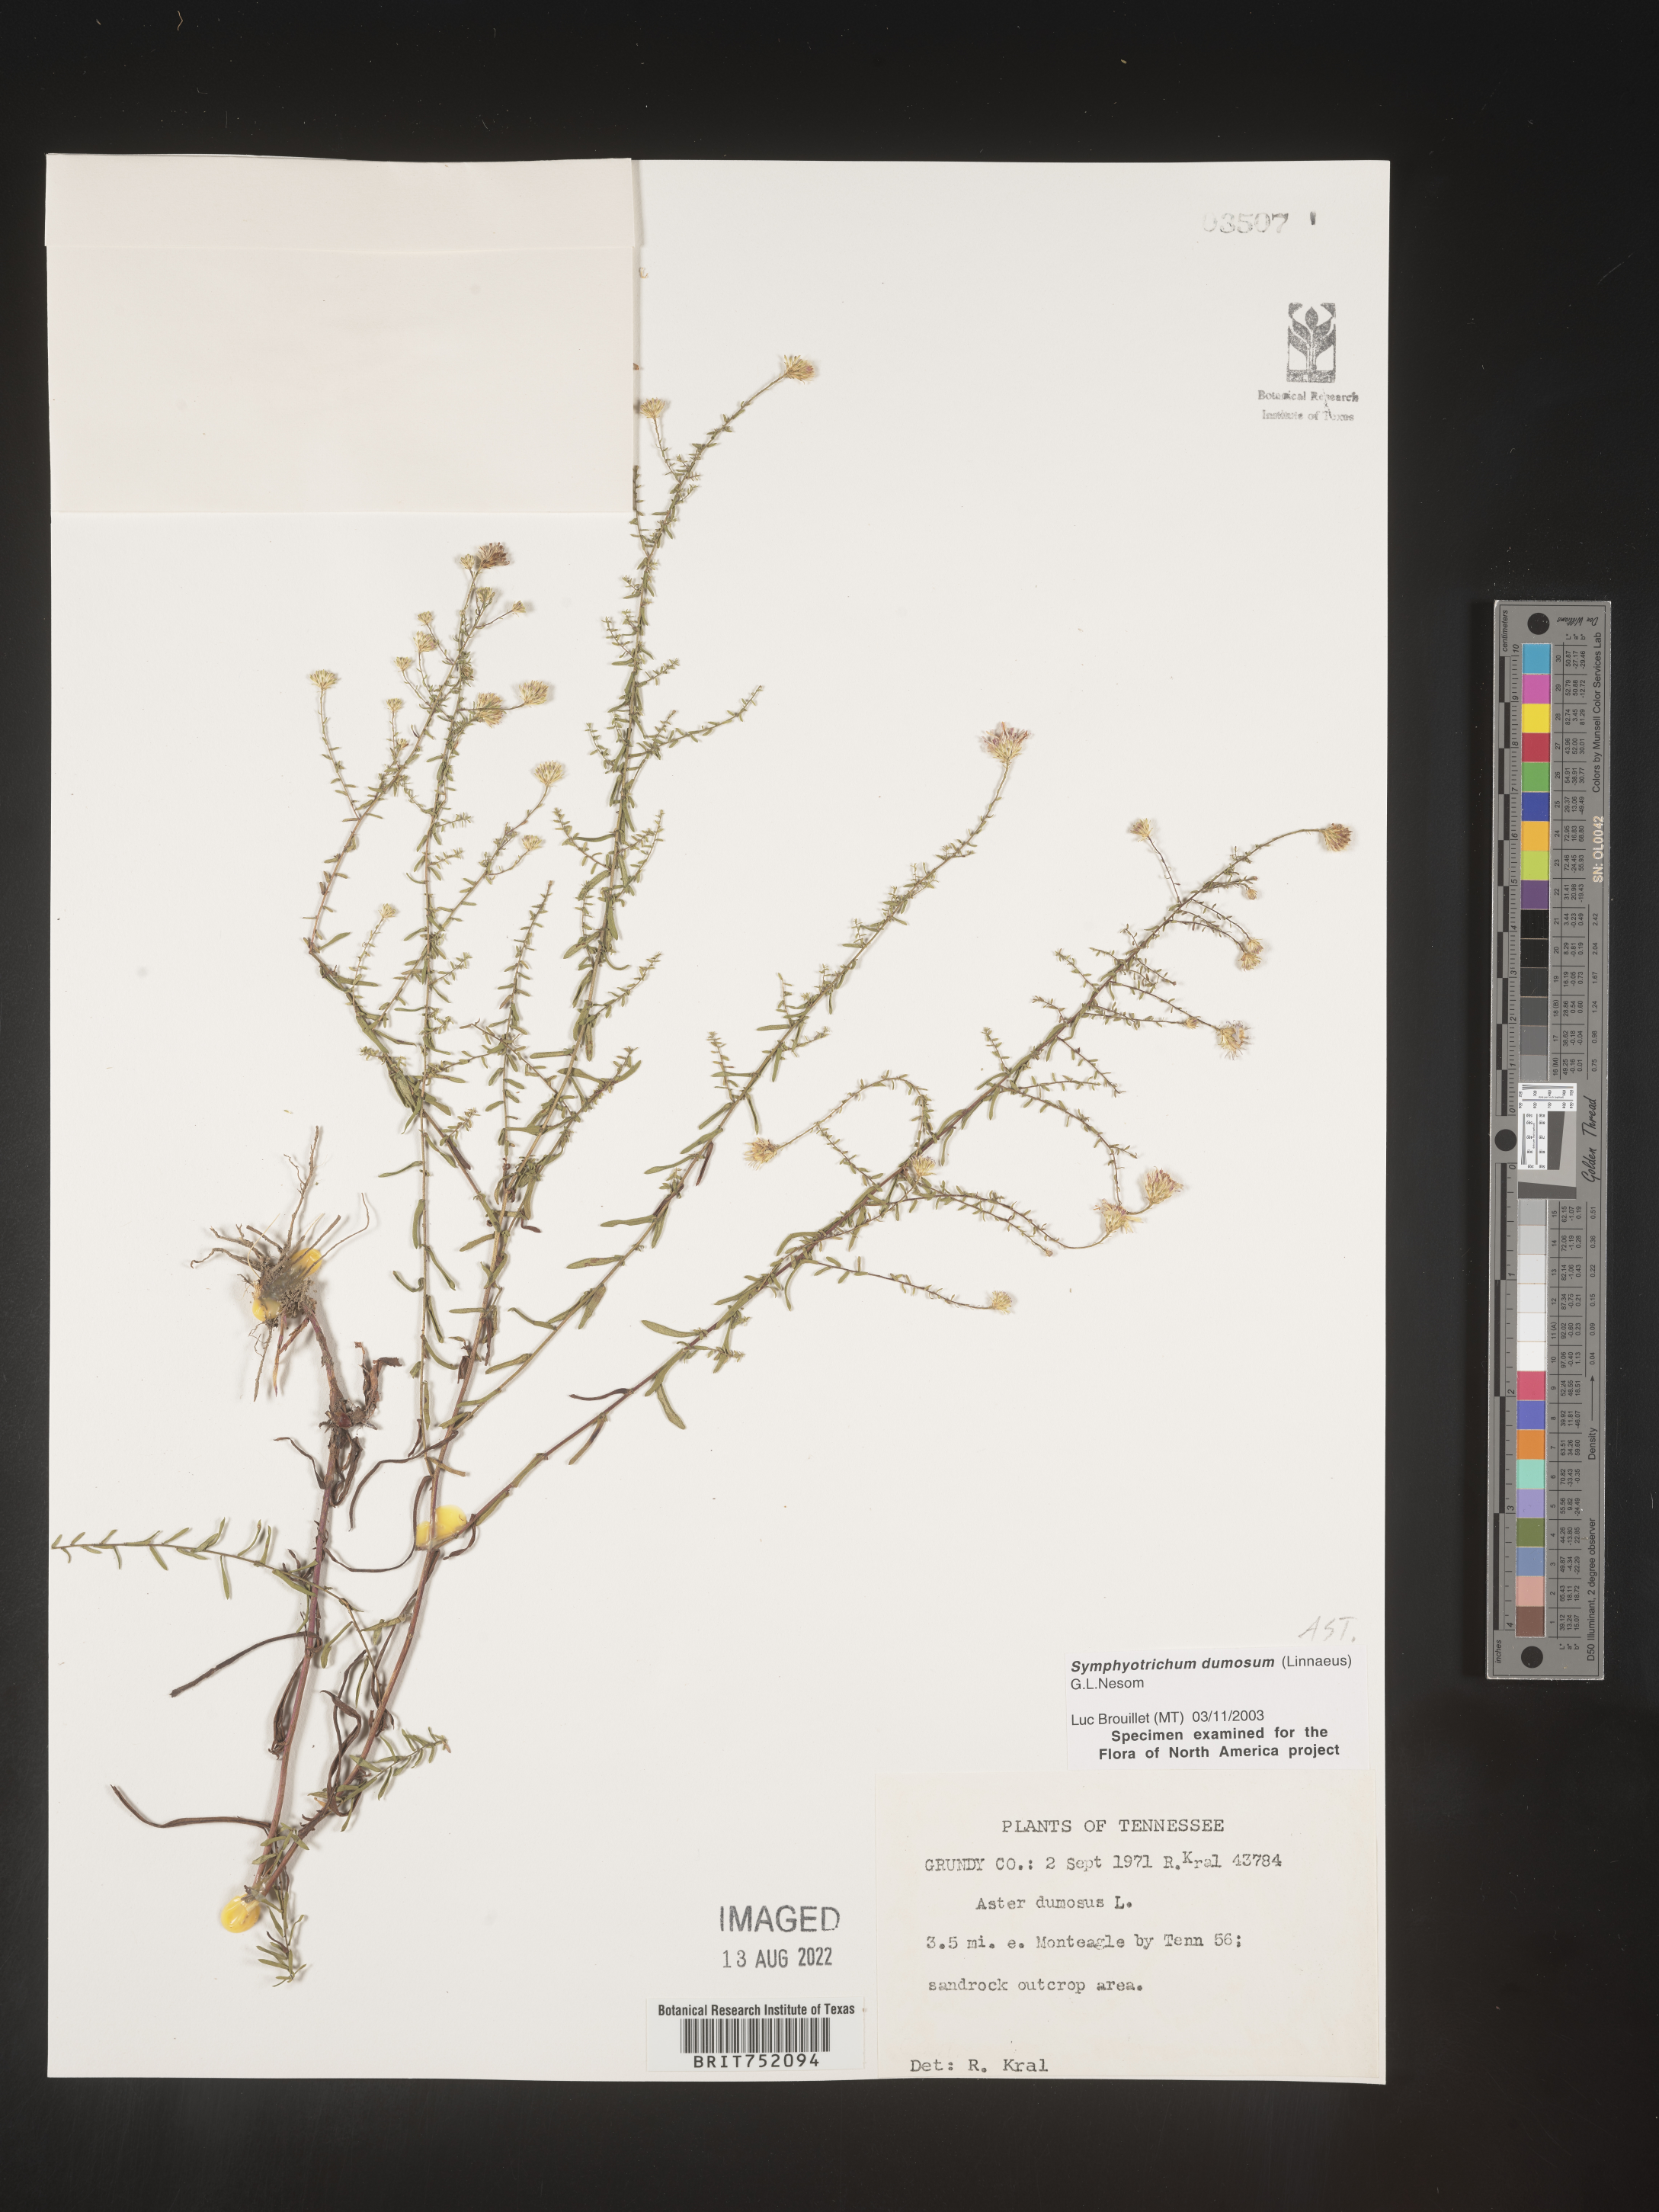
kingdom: Plantae
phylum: Tracheophyta
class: Magnoliopsida
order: Asterales
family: Asteraceae
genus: Symphyotrichum
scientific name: Symphyotrichum dumosum
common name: Bushy aster
